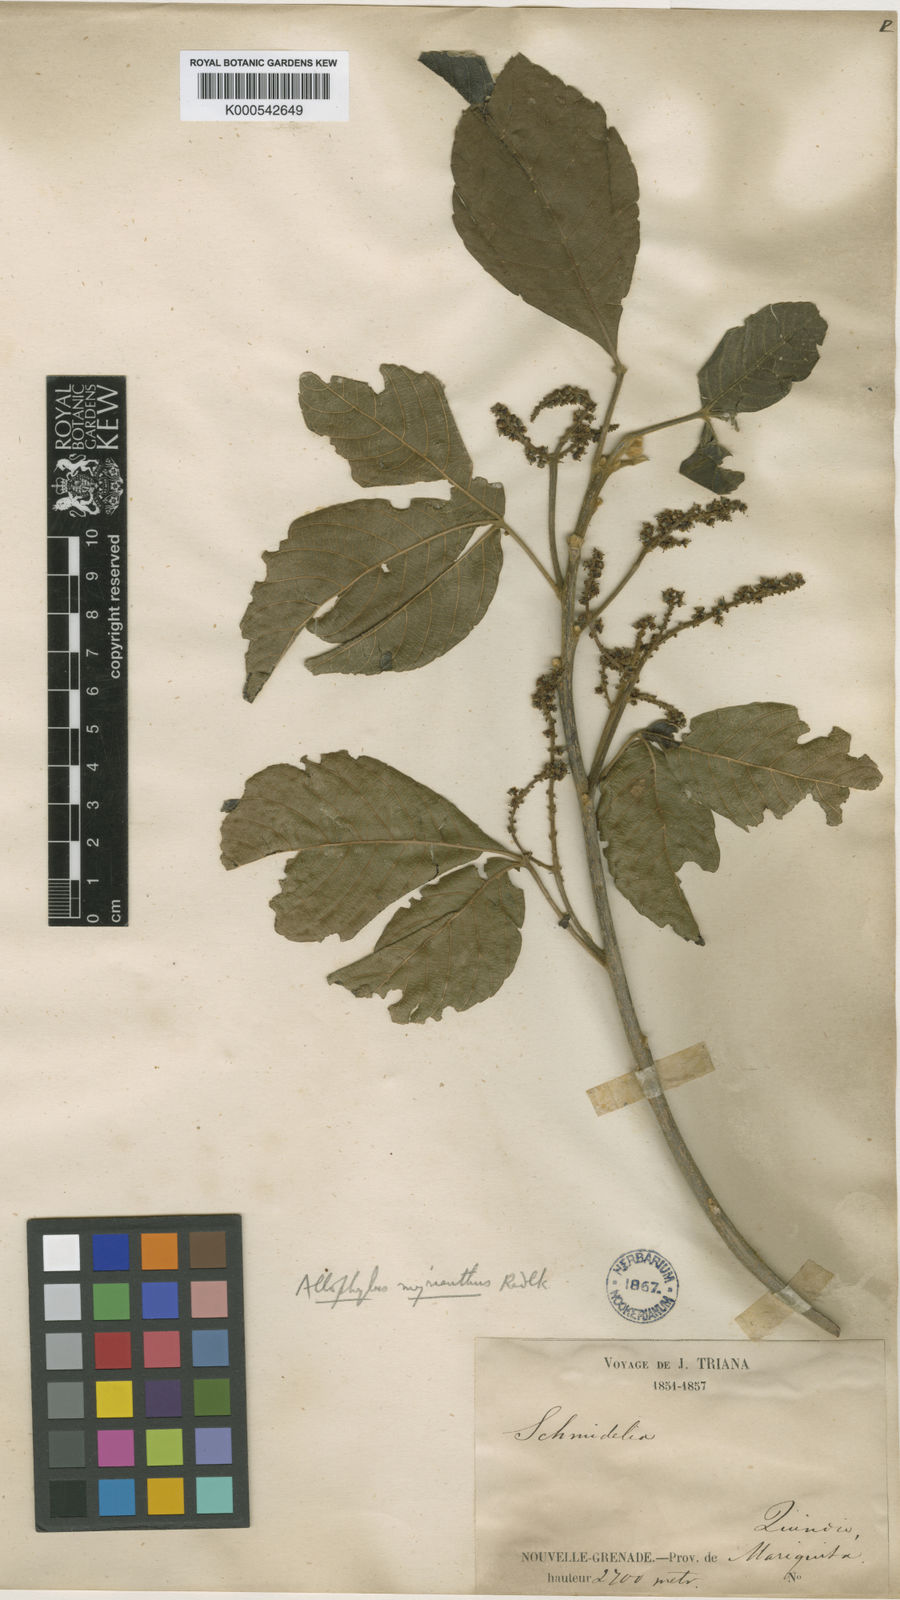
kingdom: Plantae
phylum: Tracheophyta
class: Magnoliopsida
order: Sapindales
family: Sapindaceae
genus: Allophylus
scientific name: Allophylus myrianthus
